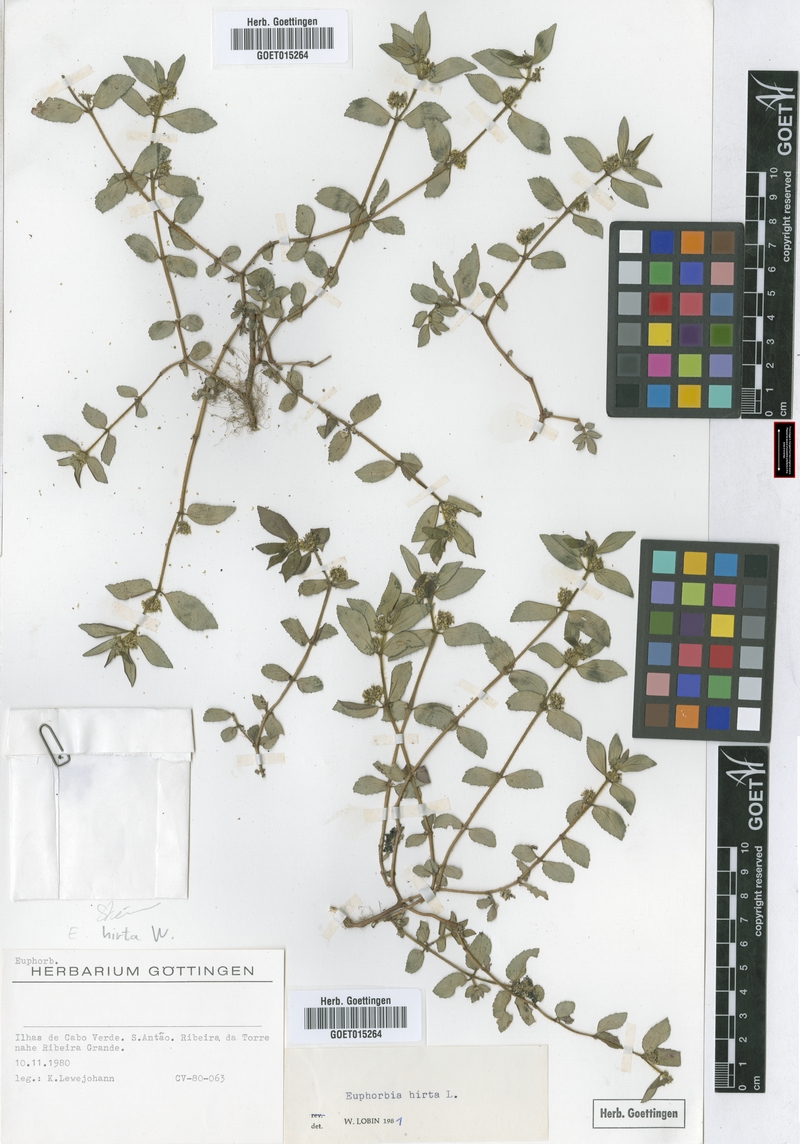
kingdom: Plantae
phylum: Tracheophyta
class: Magnoliopsida
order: Malpighiales
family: Euphorbiaceae
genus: Euphorbia
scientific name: Euphorbia hirta
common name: Pillpod sandmat
